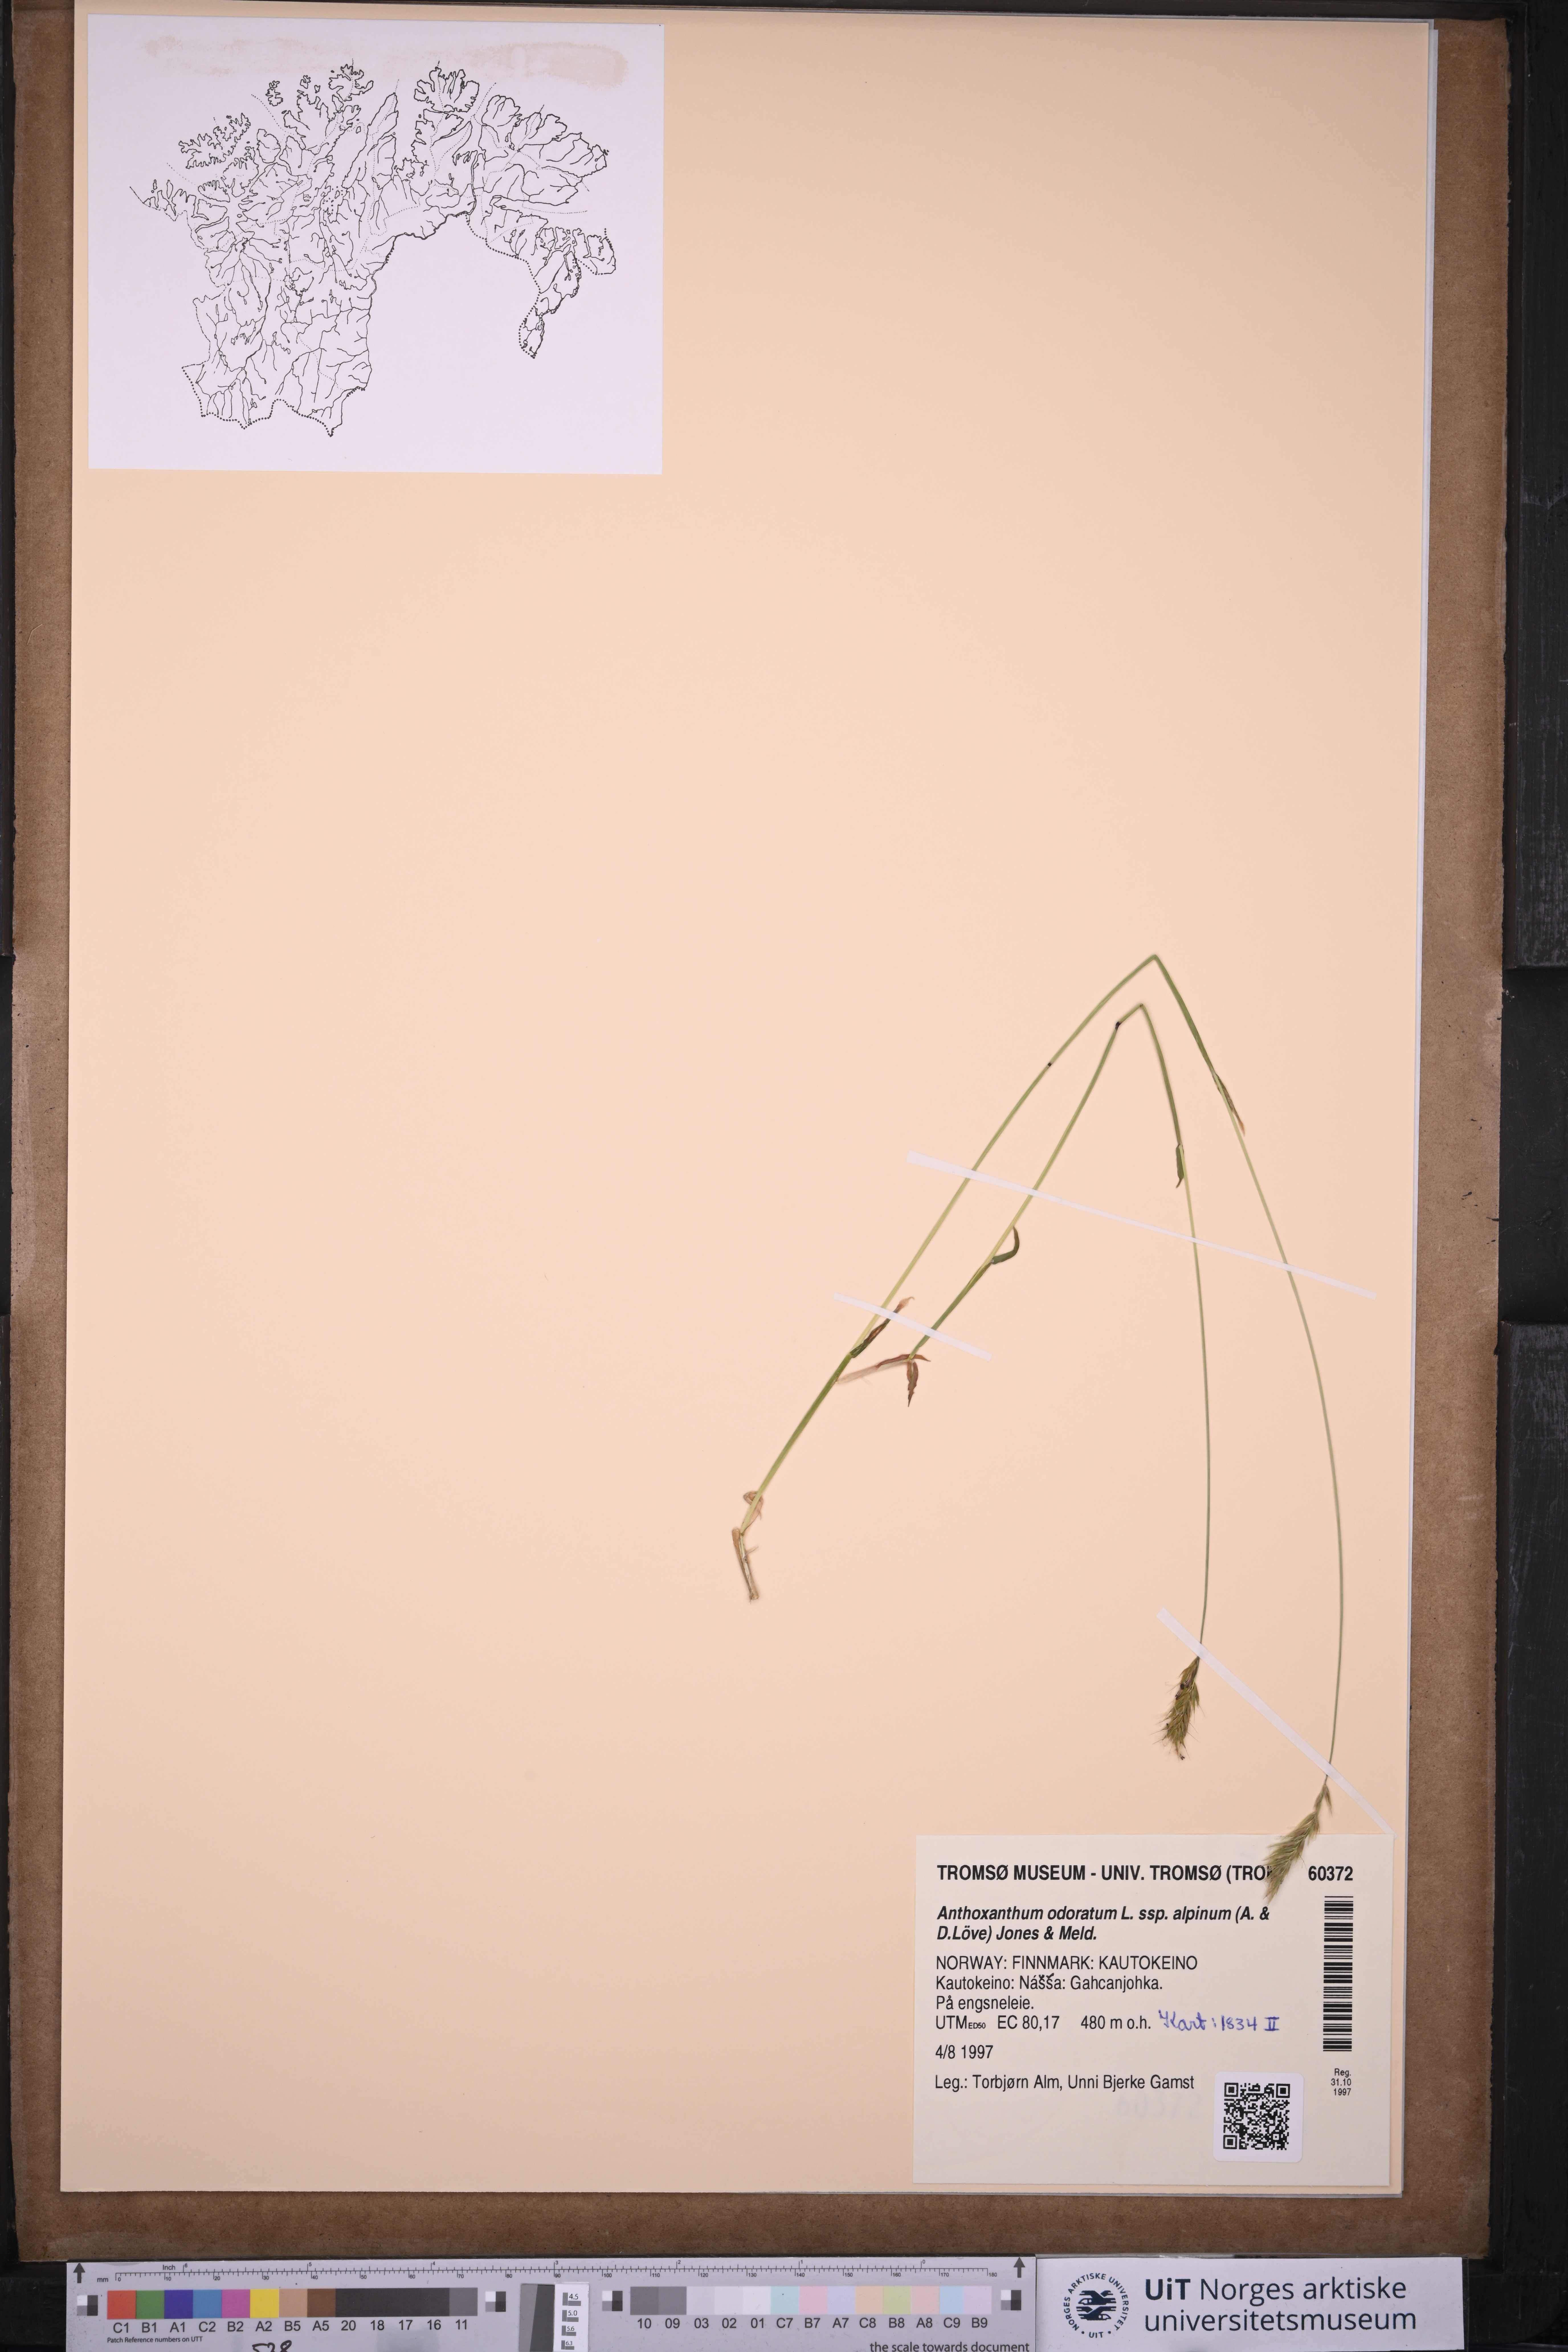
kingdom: Plantae
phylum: Tracheophyta
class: Liliopsida
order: Poales
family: Poaceae
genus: Anthoxanthum
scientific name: Anthoxanthum nipponicum
